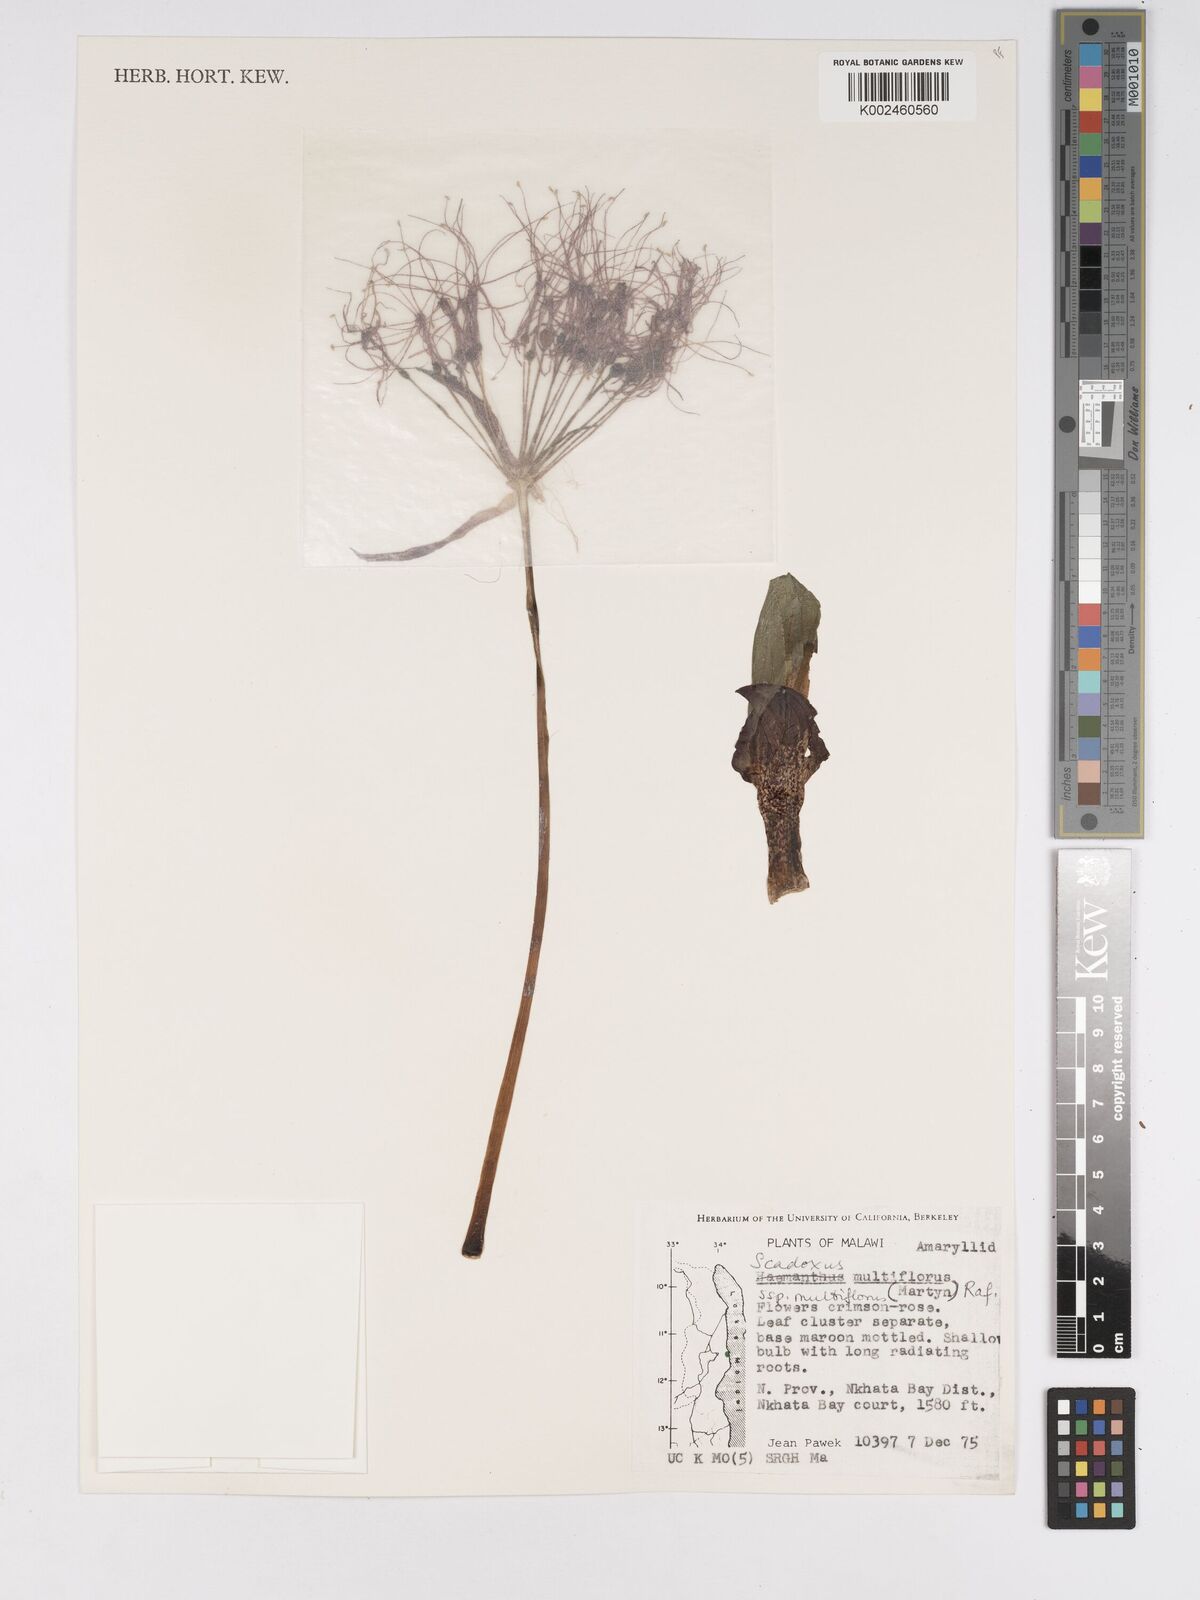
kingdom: Plantae
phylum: Tracheophyta
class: Liliopsida
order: Asparagales
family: Amaryllidaceae
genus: Scadoxus
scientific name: Scadoxus multiflorus
